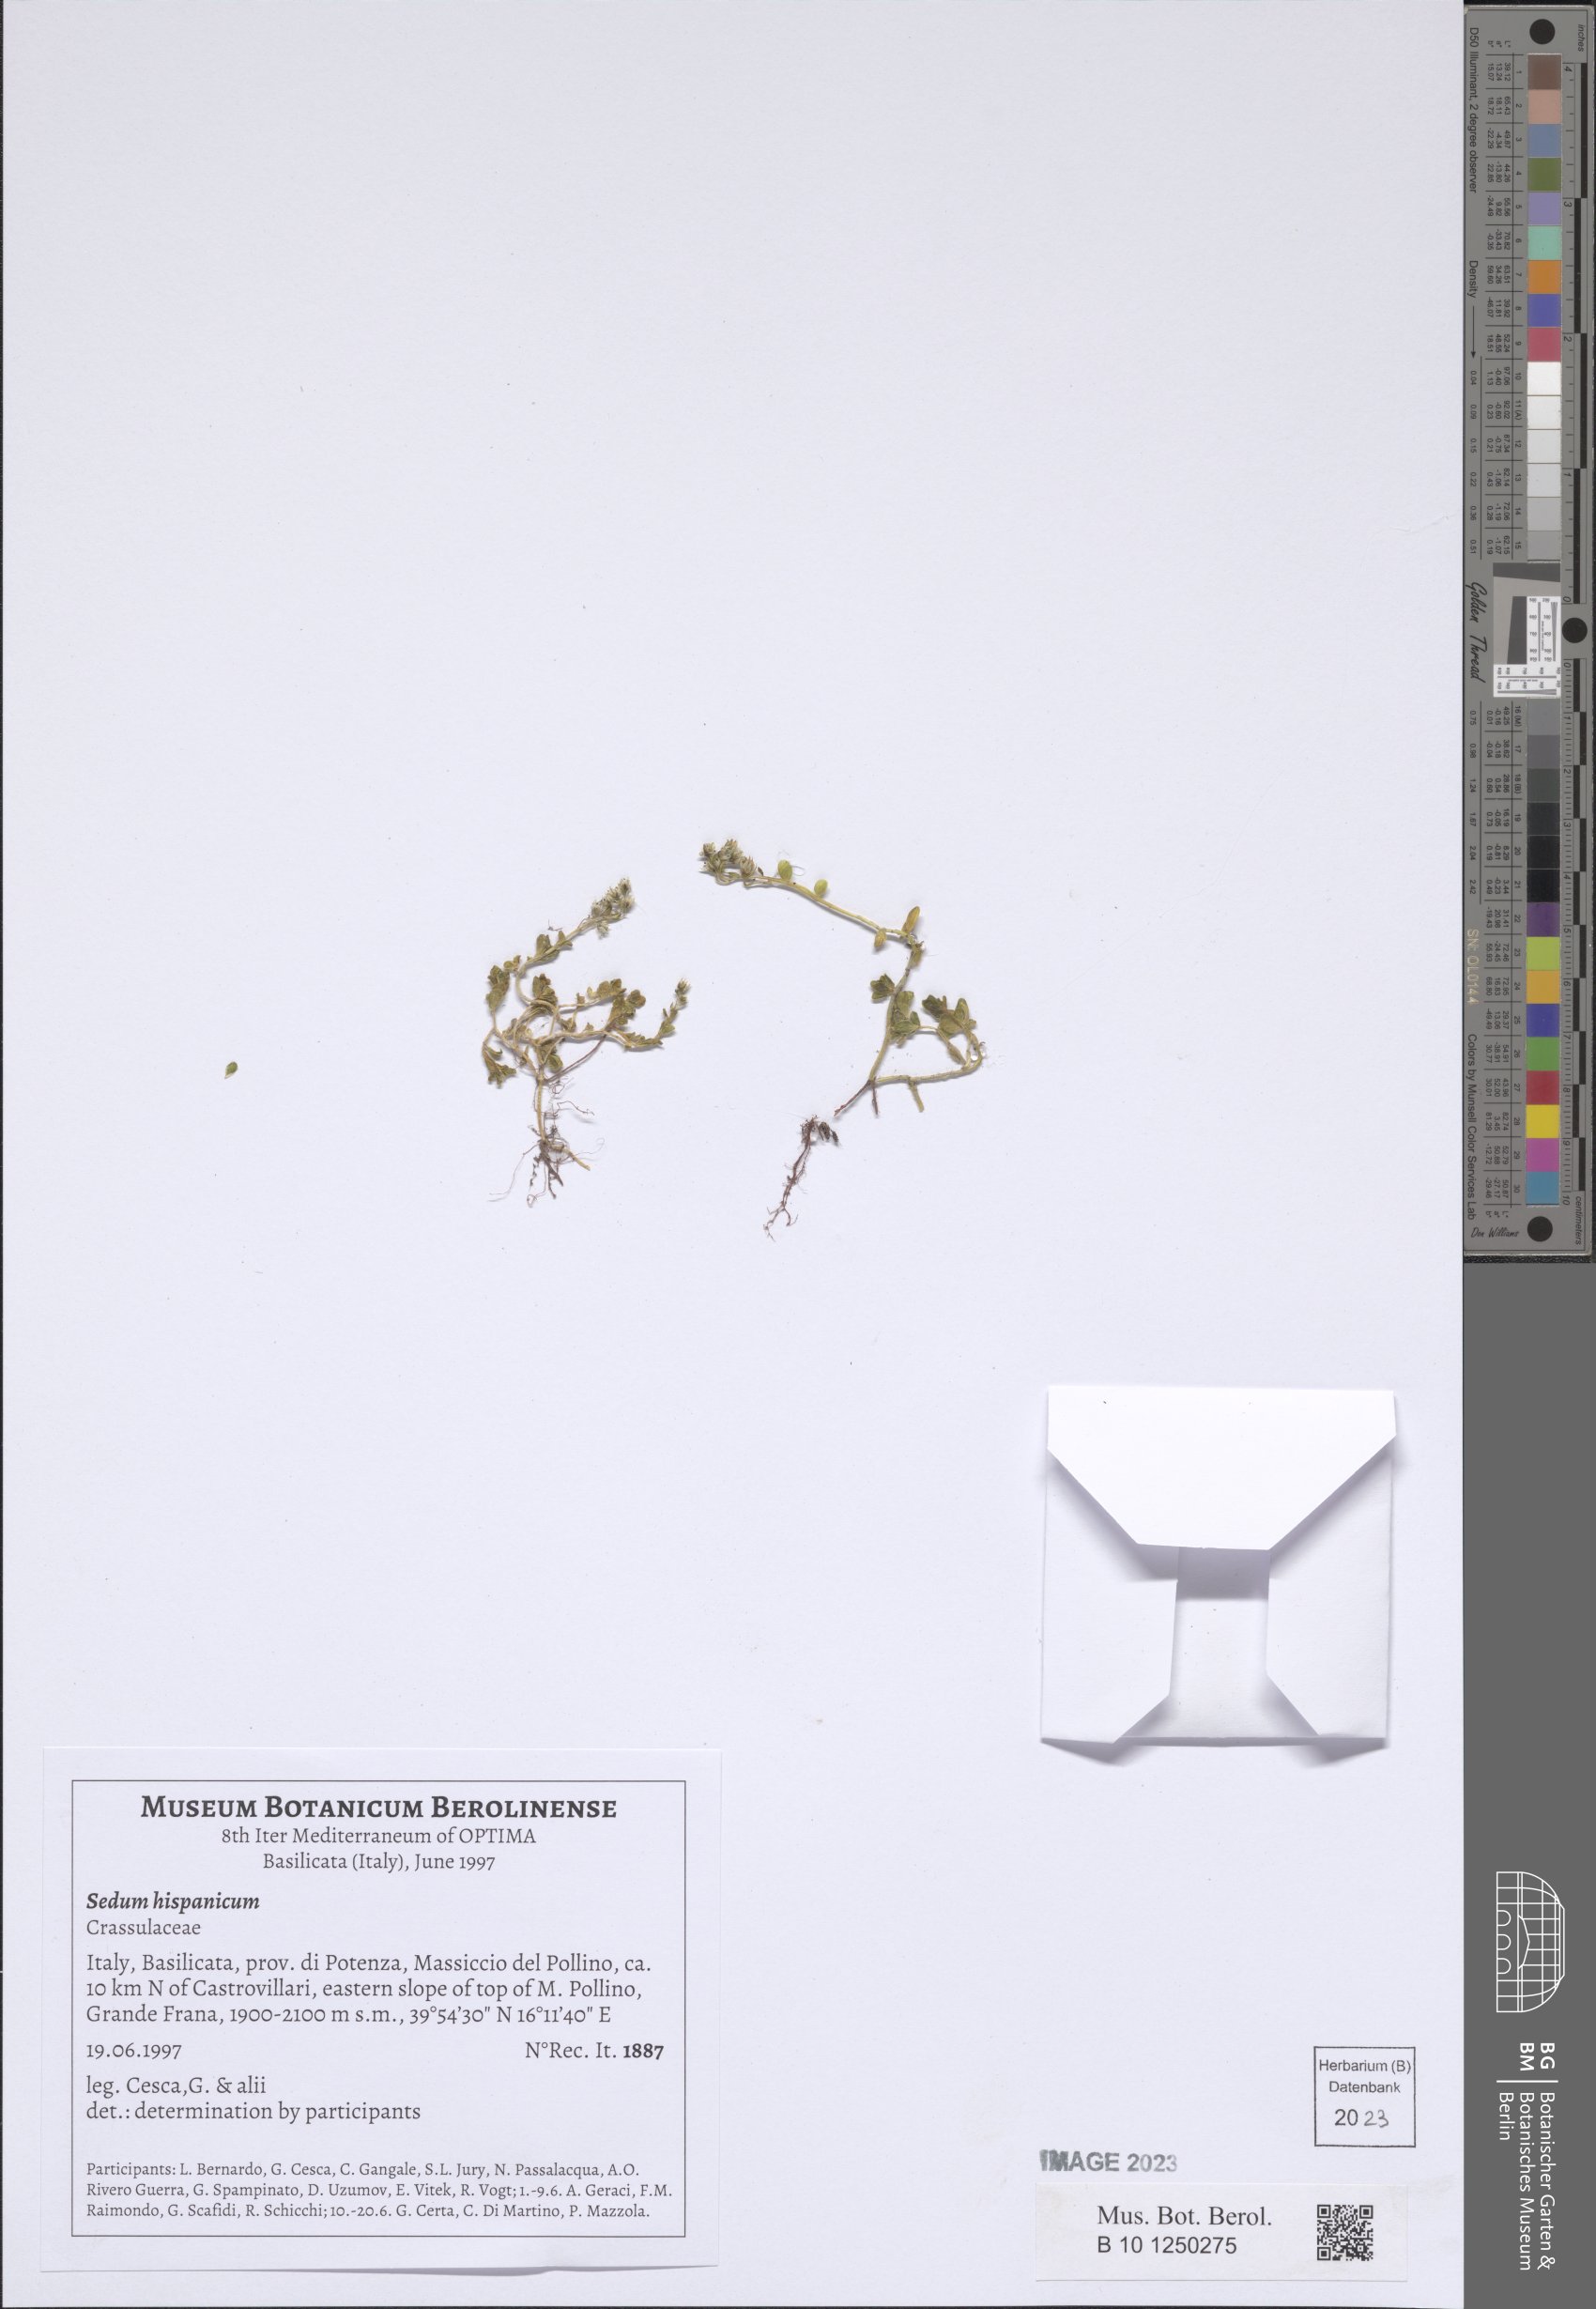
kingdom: Plantae
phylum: Tracheophyta
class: Magnoliopsida
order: Saxifragales
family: Crassulaceae
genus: Sedum
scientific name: Sedum hispanicum
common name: Spanish stonecrop
